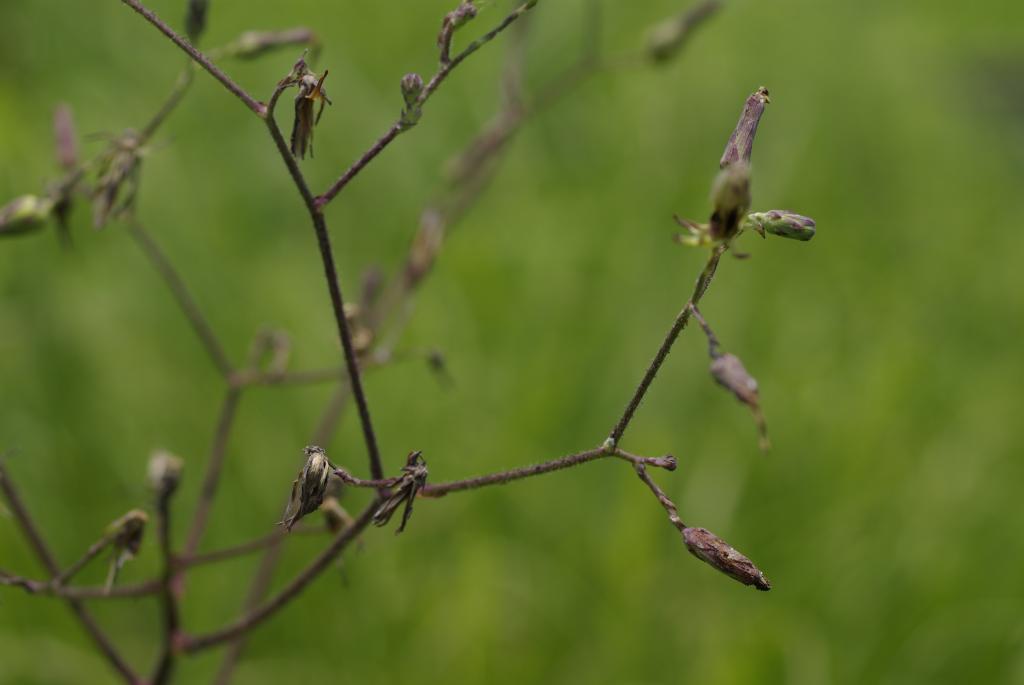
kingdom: Plantae
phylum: Tracheophyta
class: Magnoliopsida
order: Asterales
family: Asteraceae
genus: Lactuca
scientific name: Lactuca formosana
